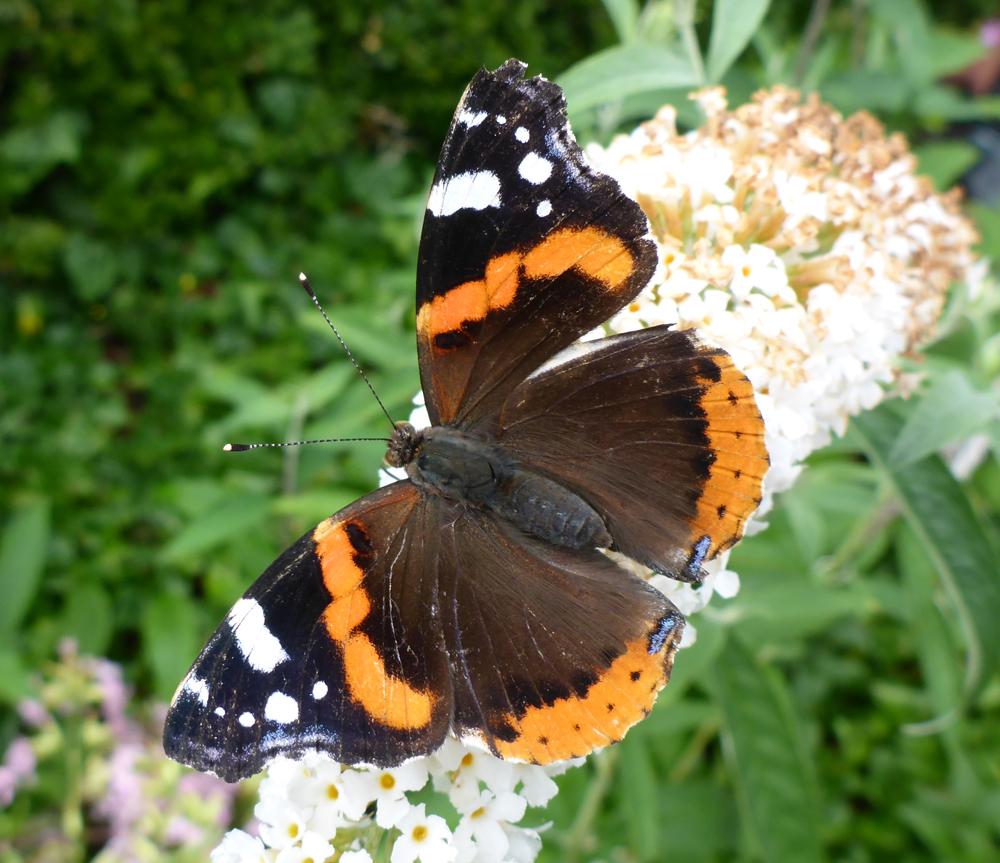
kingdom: Animalia
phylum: Arthropoda
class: Insecta
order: Lepidoptera
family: Nymphalidae
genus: Vanessa
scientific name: Vanessa atalanta
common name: Red admiral
